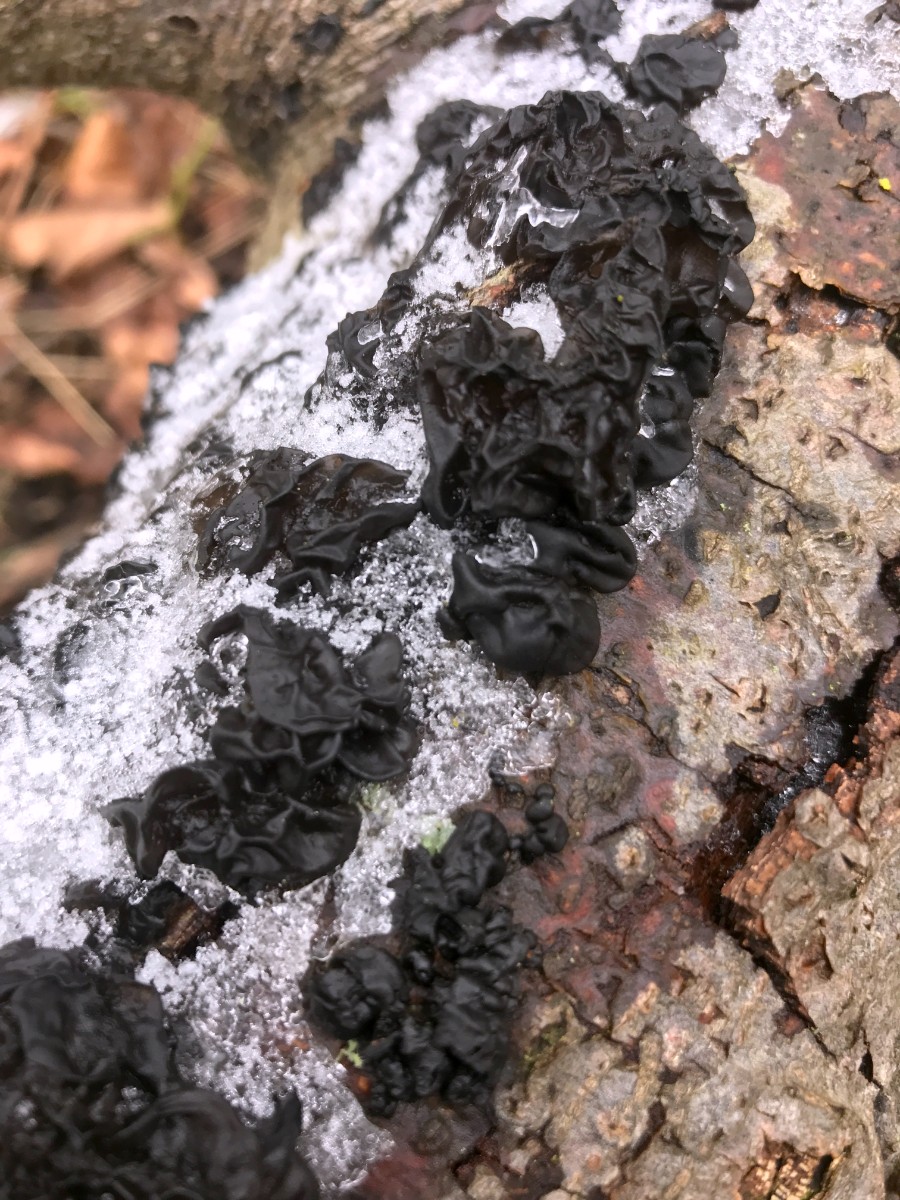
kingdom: Fungi
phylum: Basidiomycota
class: Agaricomycetes
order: Auriculariales
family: Auriculariaceae
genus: Exidia
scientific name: Exidia nigricans
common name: almindelig bævretop
